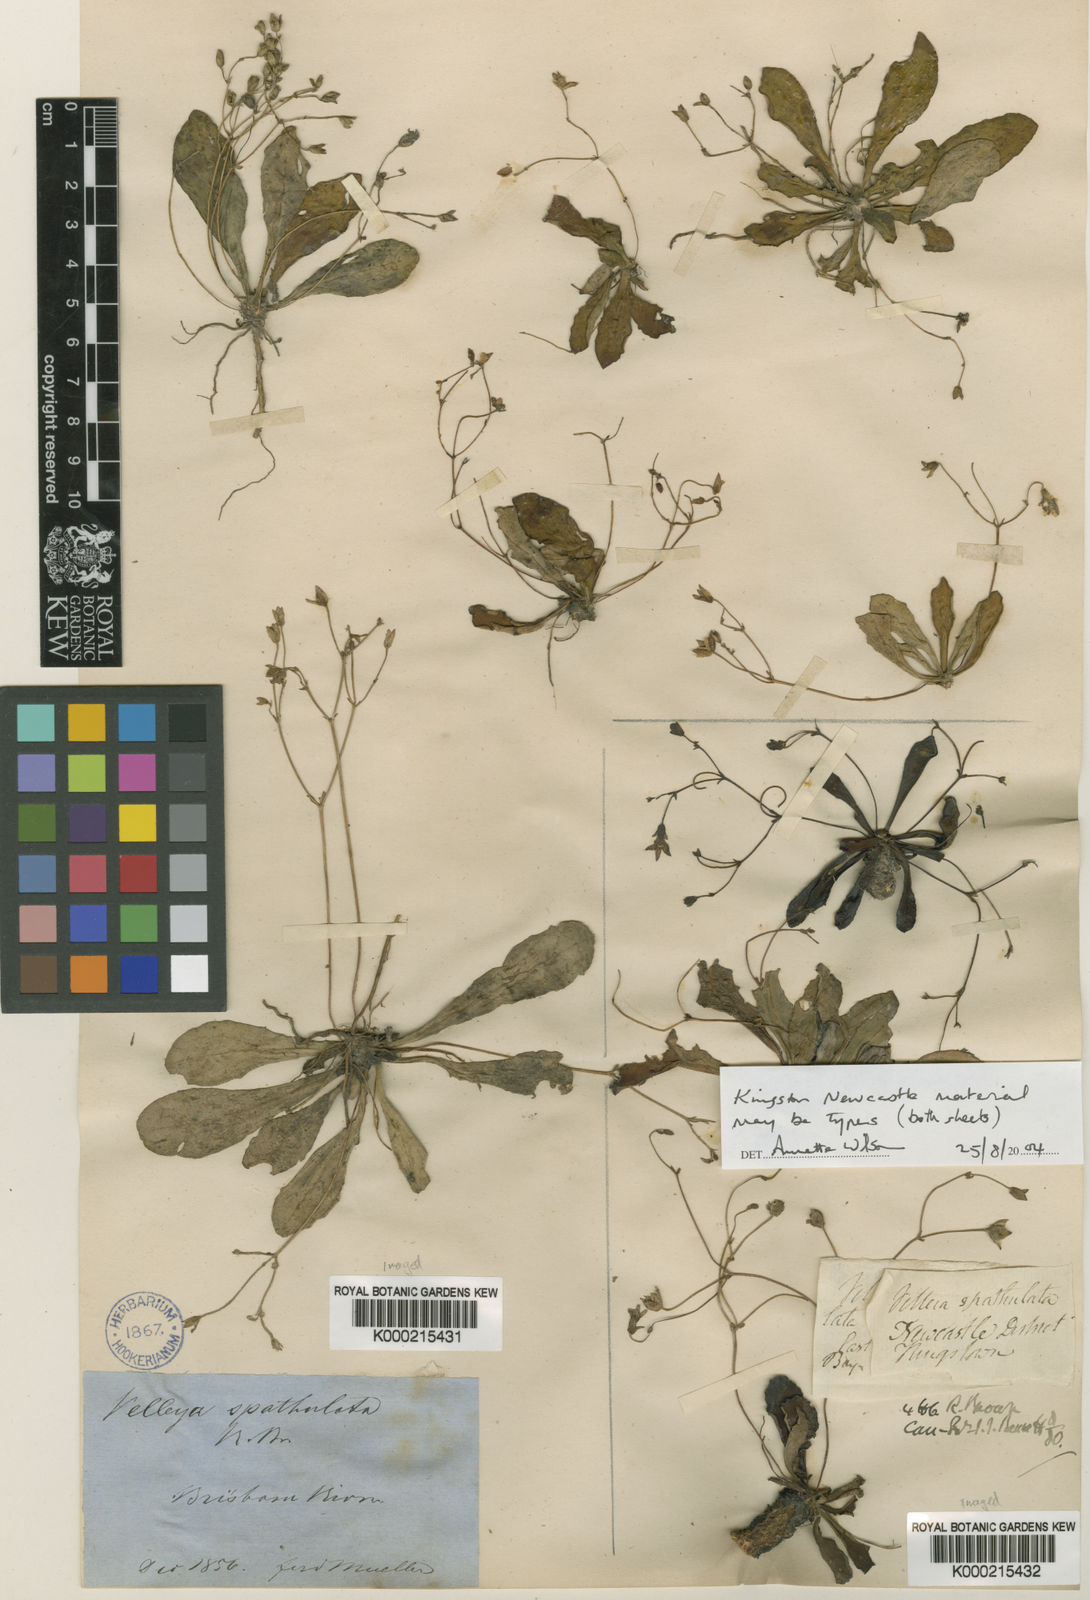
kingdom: Plantae
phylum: Tracheophyta
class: Magnoliopsida
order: Asterales
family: Goodeniaceae
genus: Goodenia
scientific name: Goodenia mystrophylla
